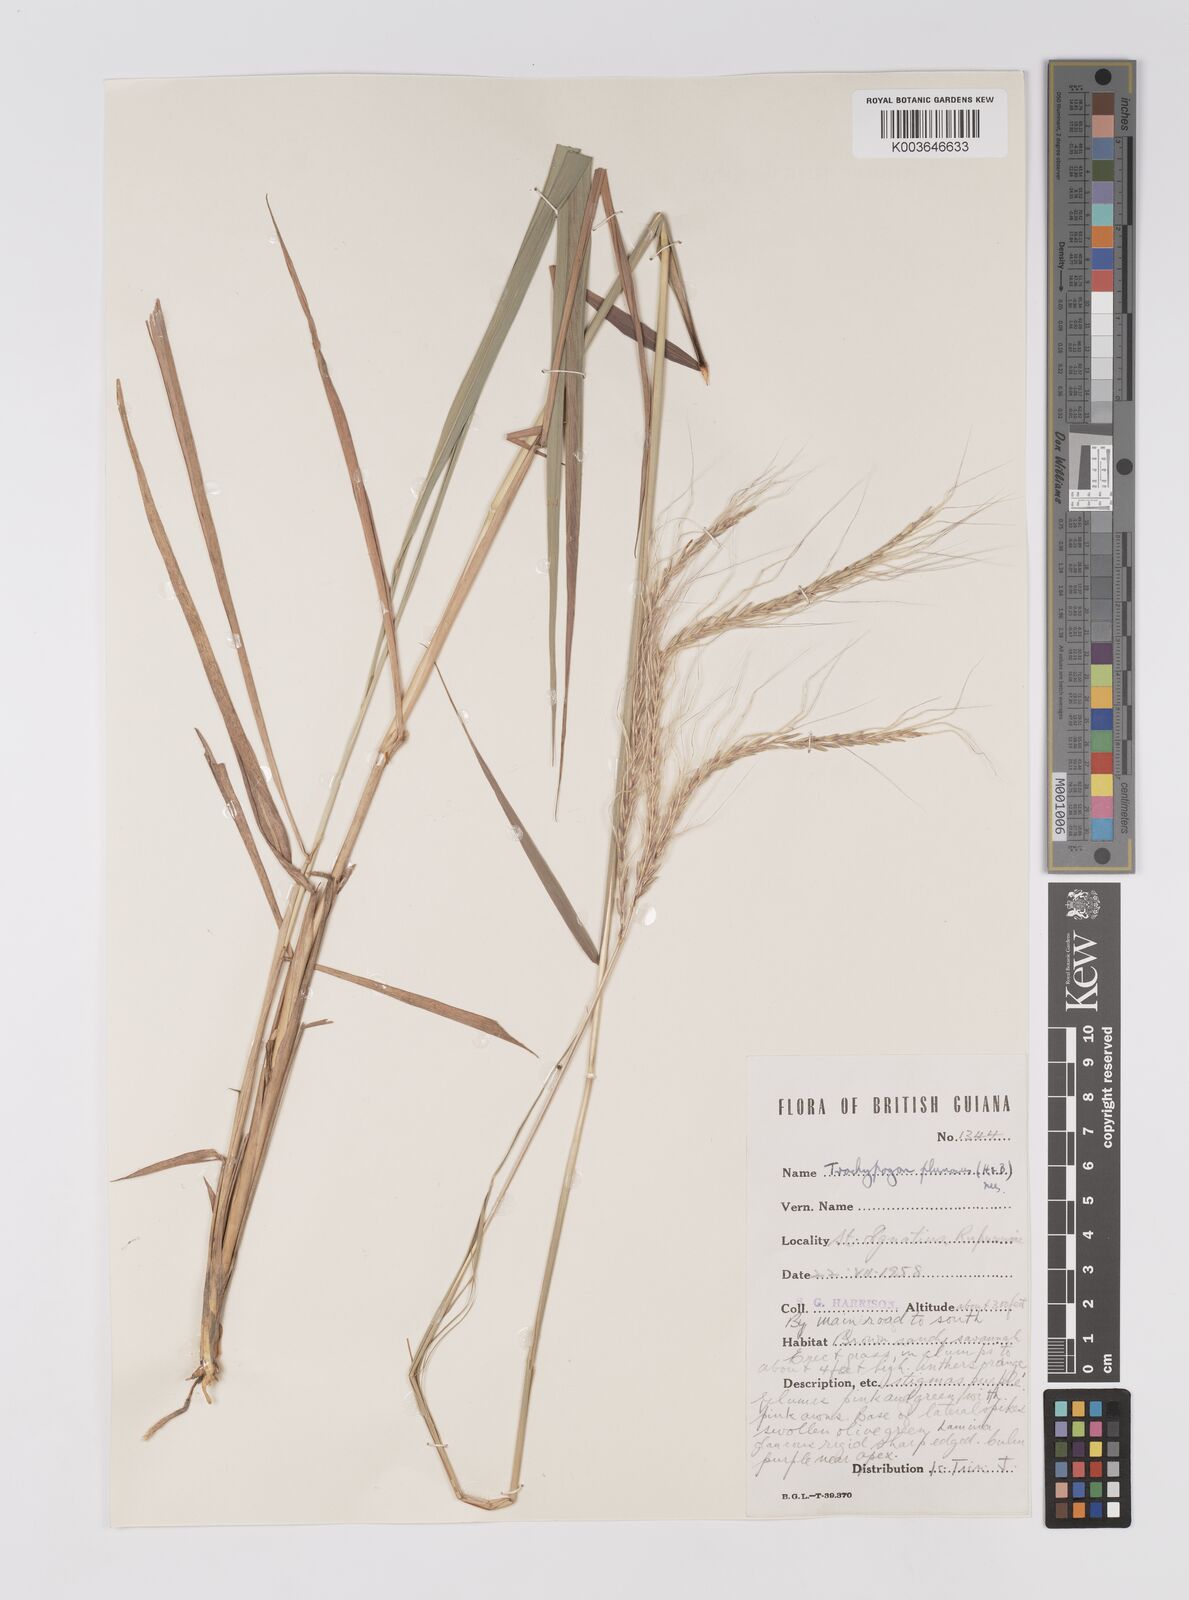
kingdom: Plantae
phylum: Tracheophyta
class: Liliopsida
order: Poales
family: Poaceae
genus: Trachypogon
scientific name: Trachypogon spicatus
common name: Crinkle-awn
